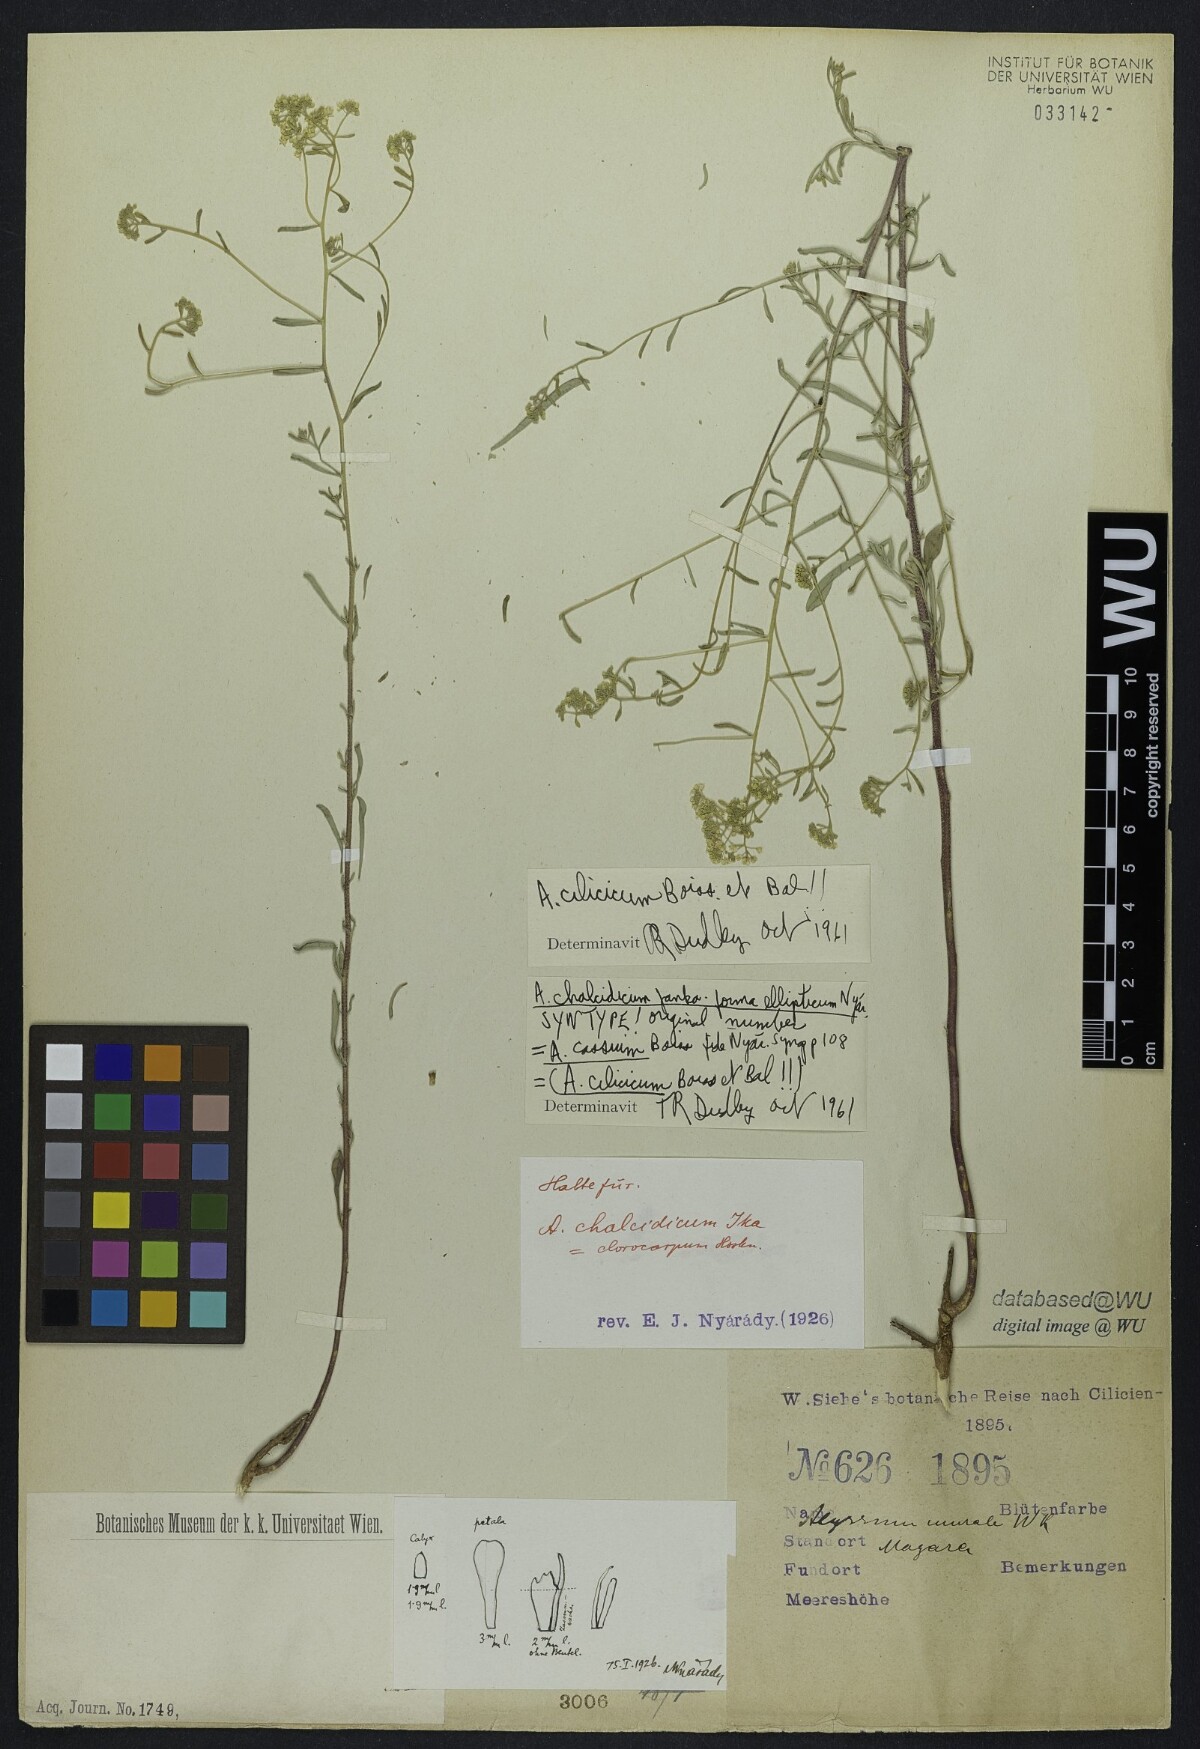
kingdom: Plantae
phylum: Tracheophyta
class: Magnoliopsida
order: Brassicales
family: Brassicaceae
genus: Odontarrhena
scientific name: Odontarrhena chalcidica
